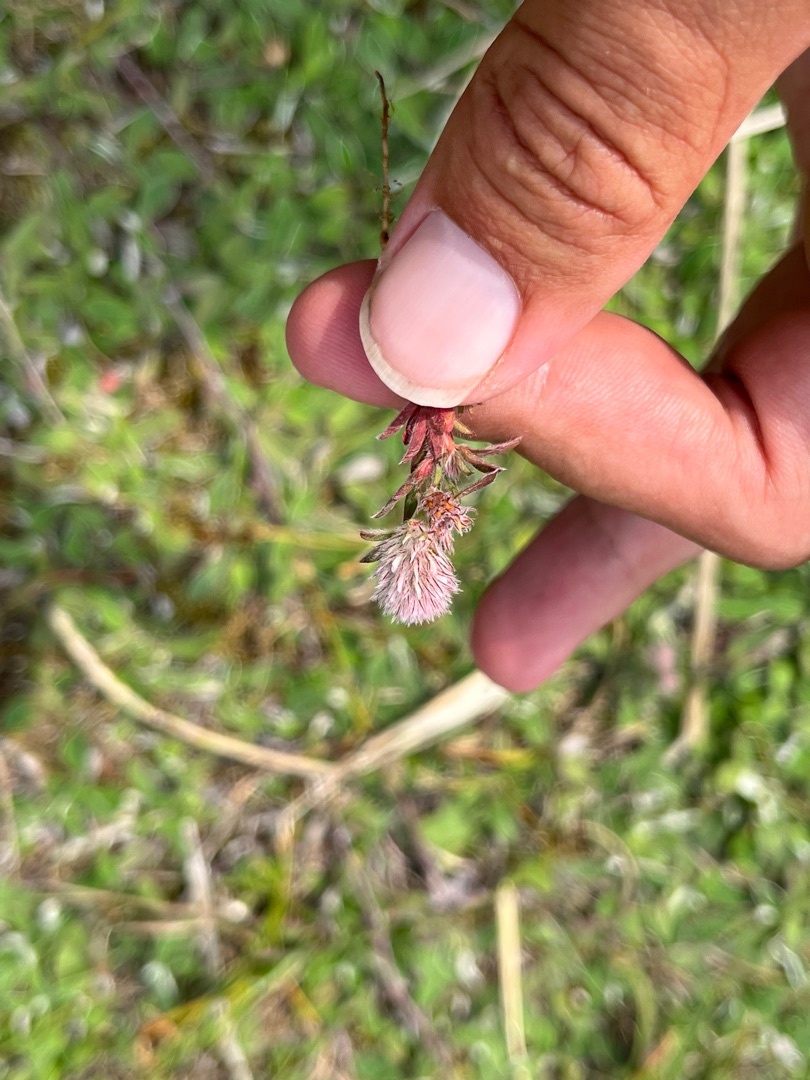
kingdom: Plantae
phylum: Tracheophyta
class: Magnoliopsida
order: Fabales
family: Fabaceae
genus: Trifolium
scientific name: Trifolium arvense
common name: Hare-kløver
